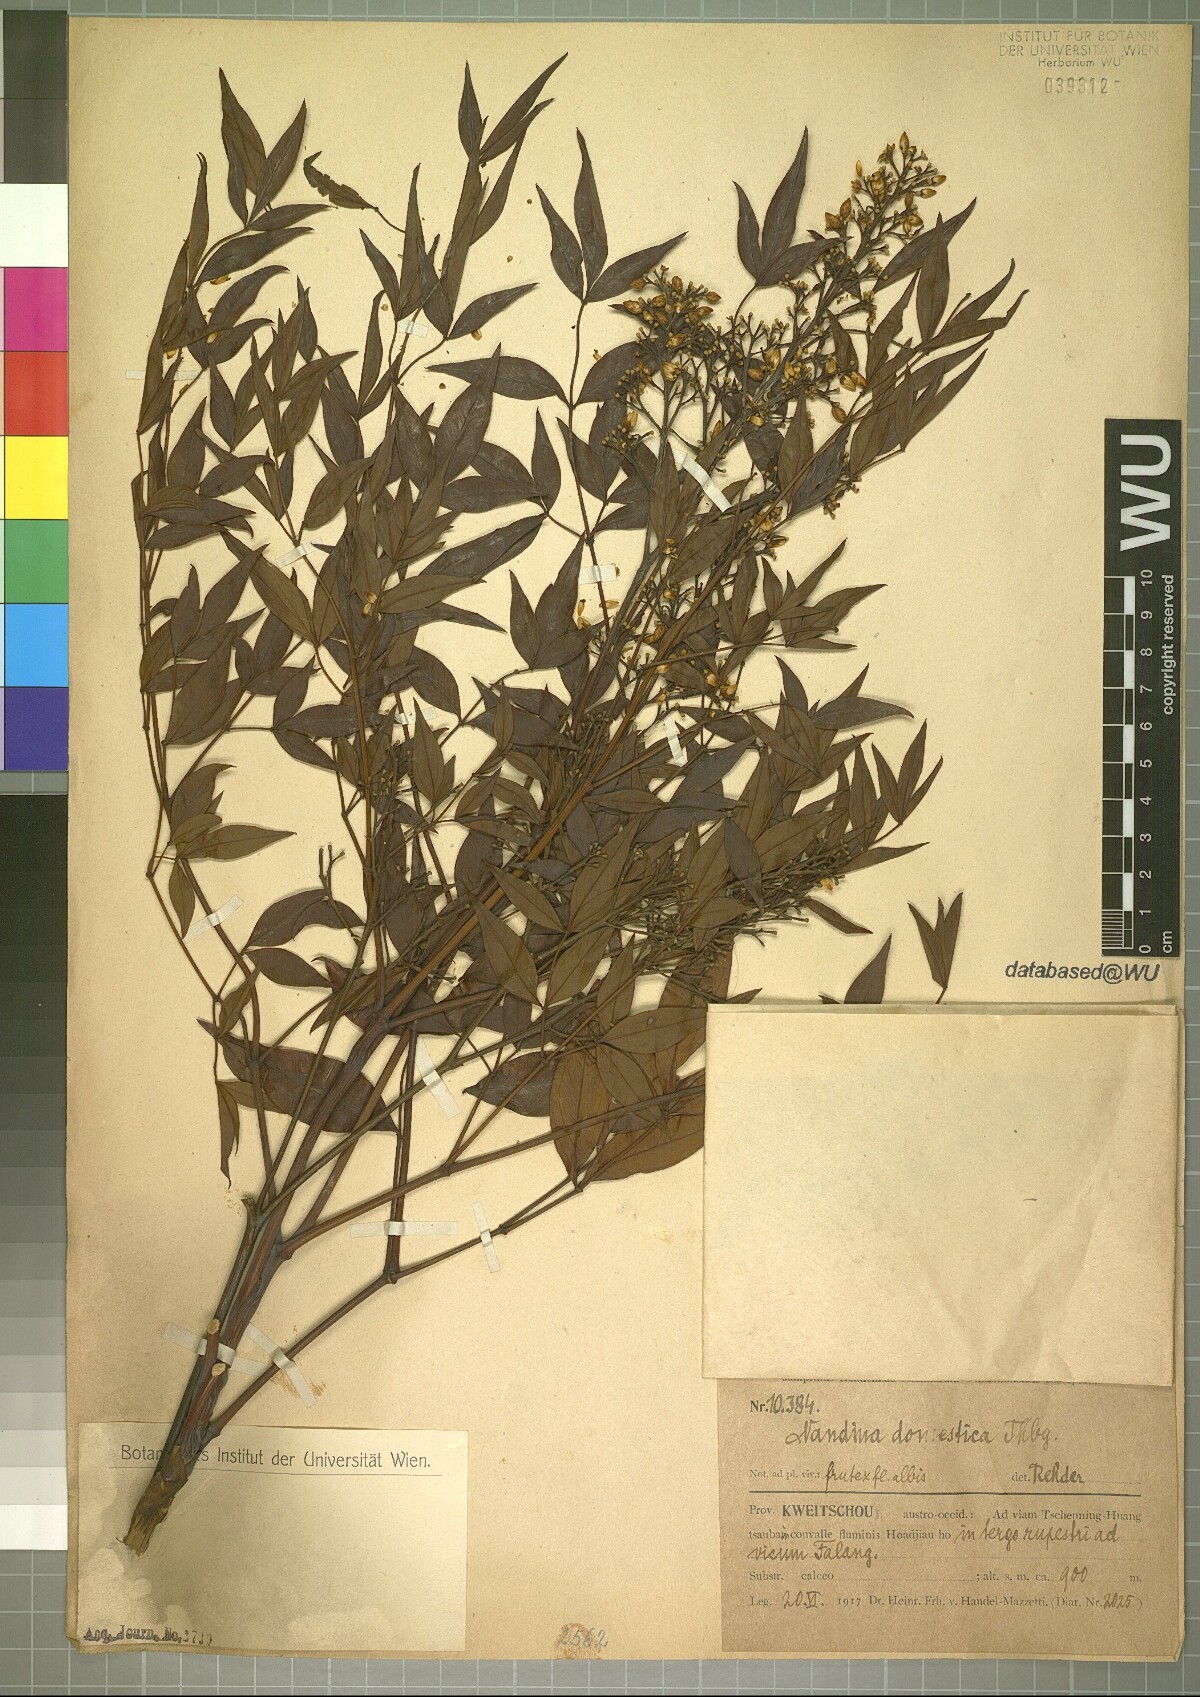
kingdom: Plantae
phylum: Tracheophyta
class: Magnoliopsida
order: Ranunculales
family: Berberidaceae
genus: Nandina
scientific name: Nandina domestica
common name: Sacred bamboo
